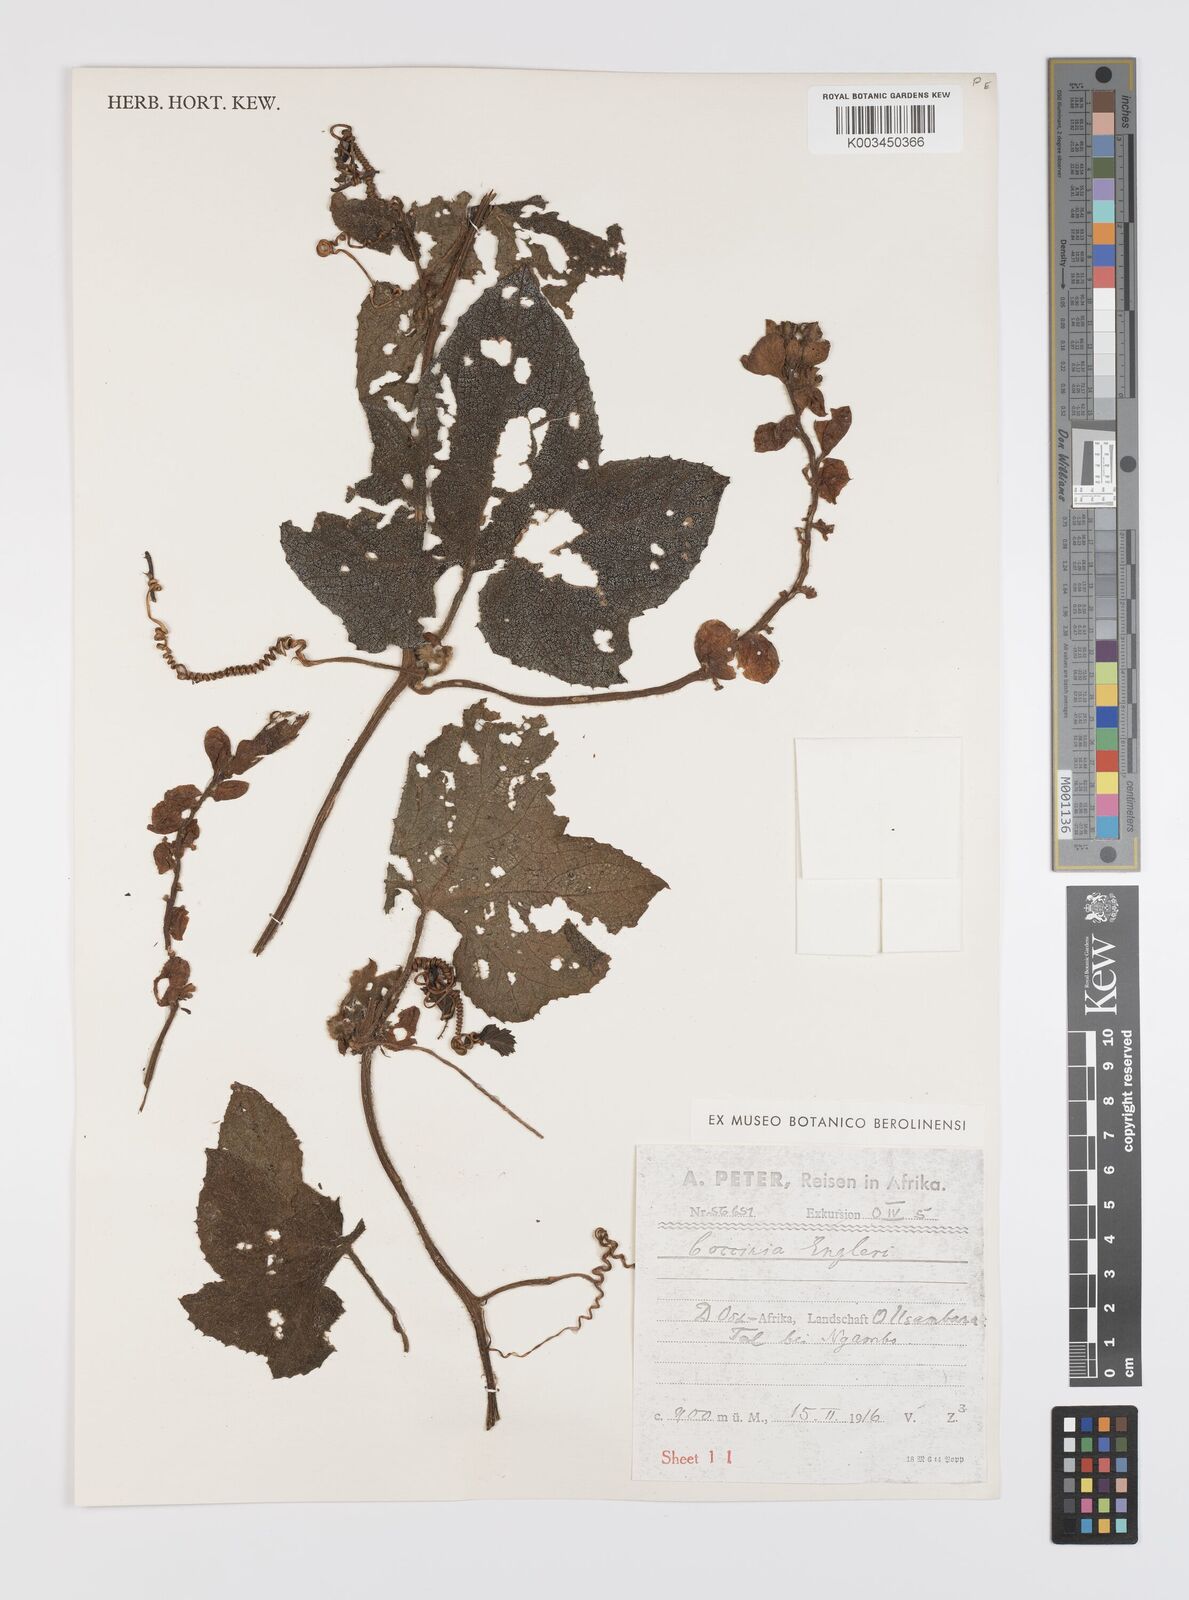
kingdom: Plantae
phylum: Tracheophyta
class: Magnoliopsida
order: Cucurbitales
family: Cucurbitaceae
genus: Peponium
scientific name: Peponium vogelii
